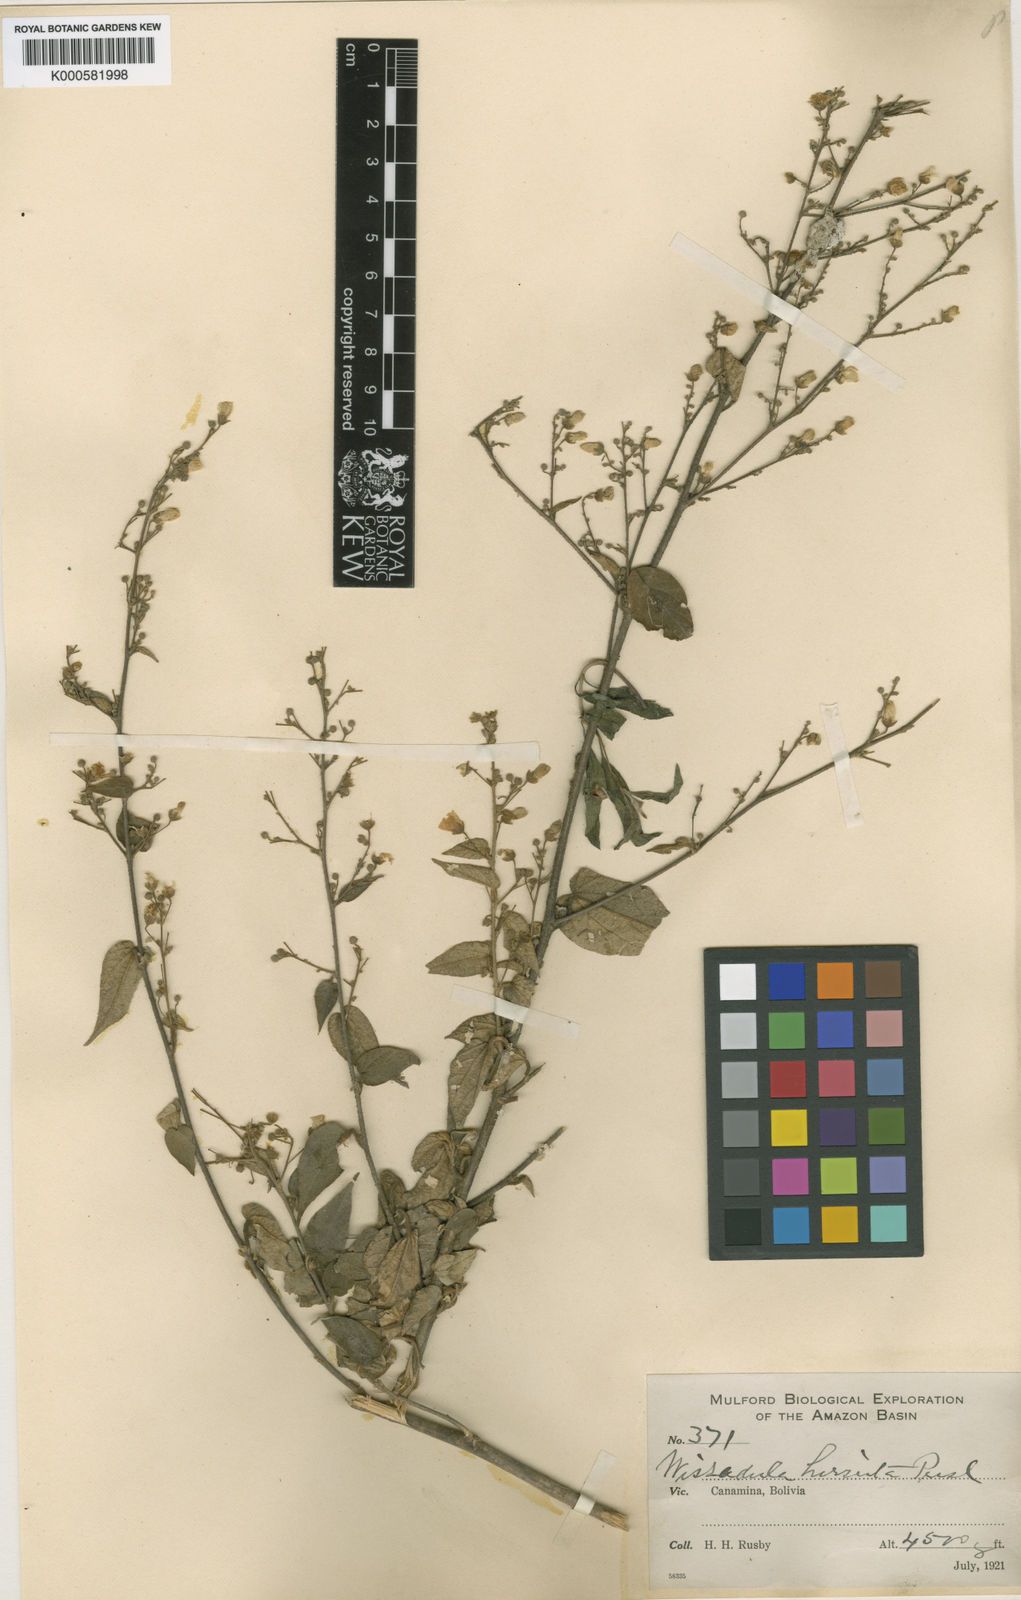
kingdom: Plantae
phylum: Tracheophyta
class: Magnoliopsida
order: Malvales
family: Malvaceae
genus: Wissadula
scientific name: Wissadula amplissima
